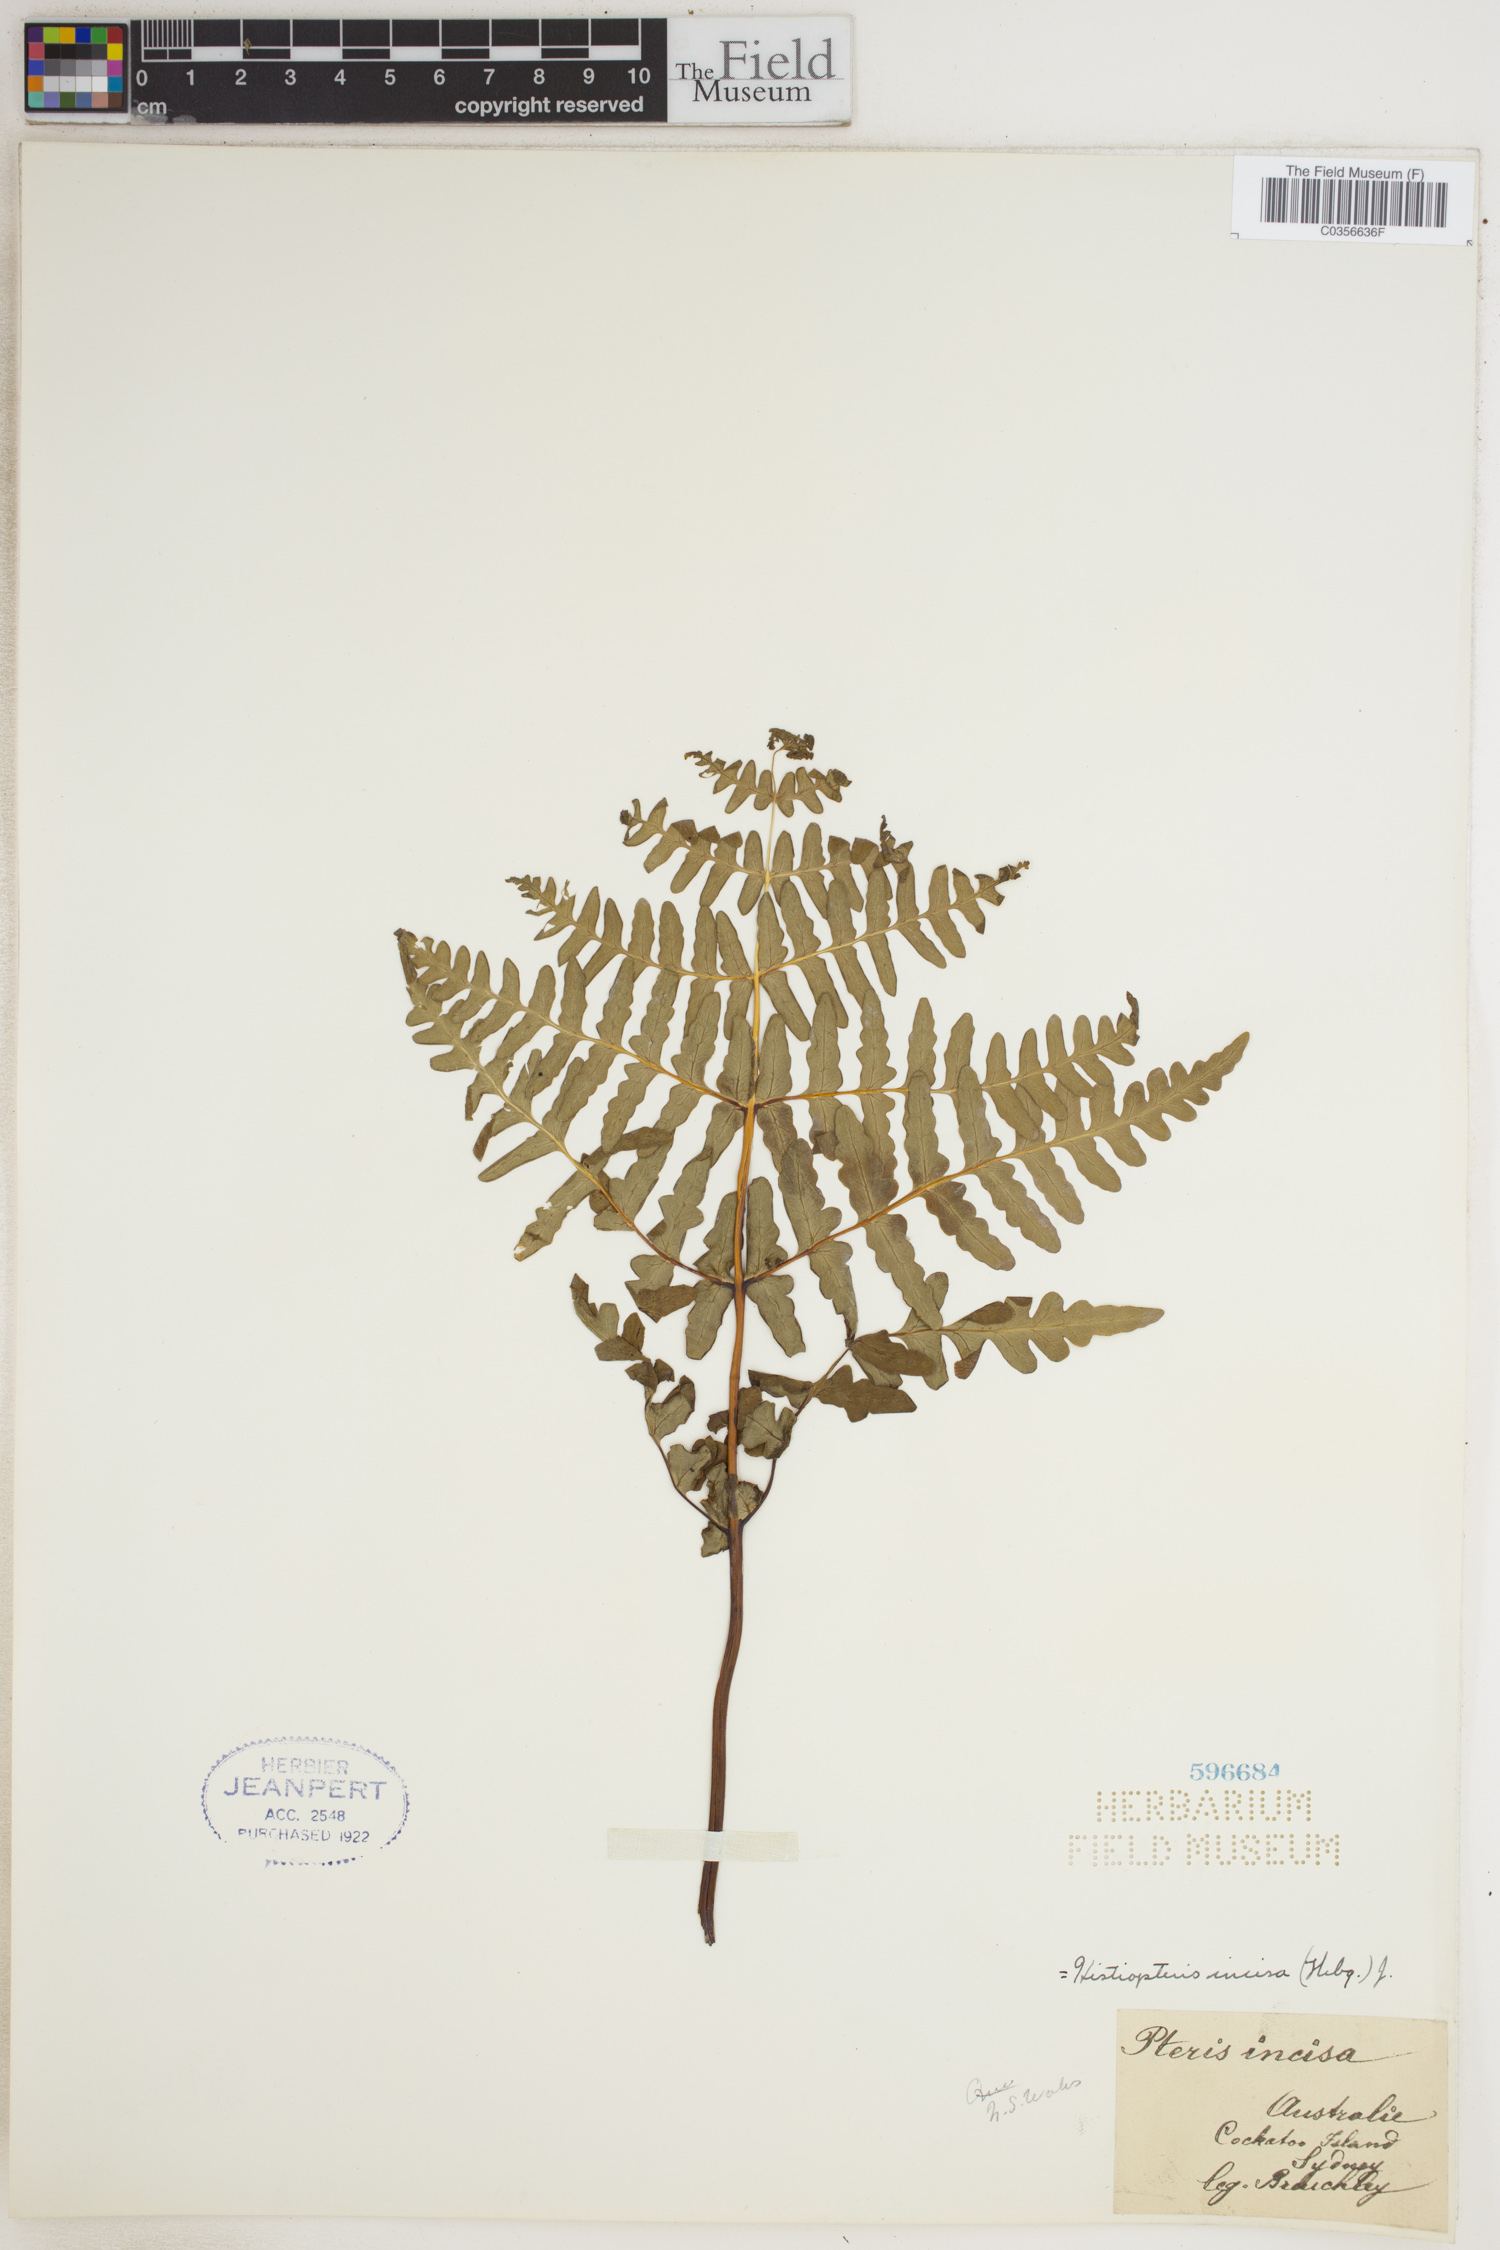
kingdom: Plantae
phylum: Tracheophyta
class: Polypodiopsida
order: Polypodiales
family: Dennstaedtiaceae
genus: Histiopteris
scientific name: Histiopteris incisa
